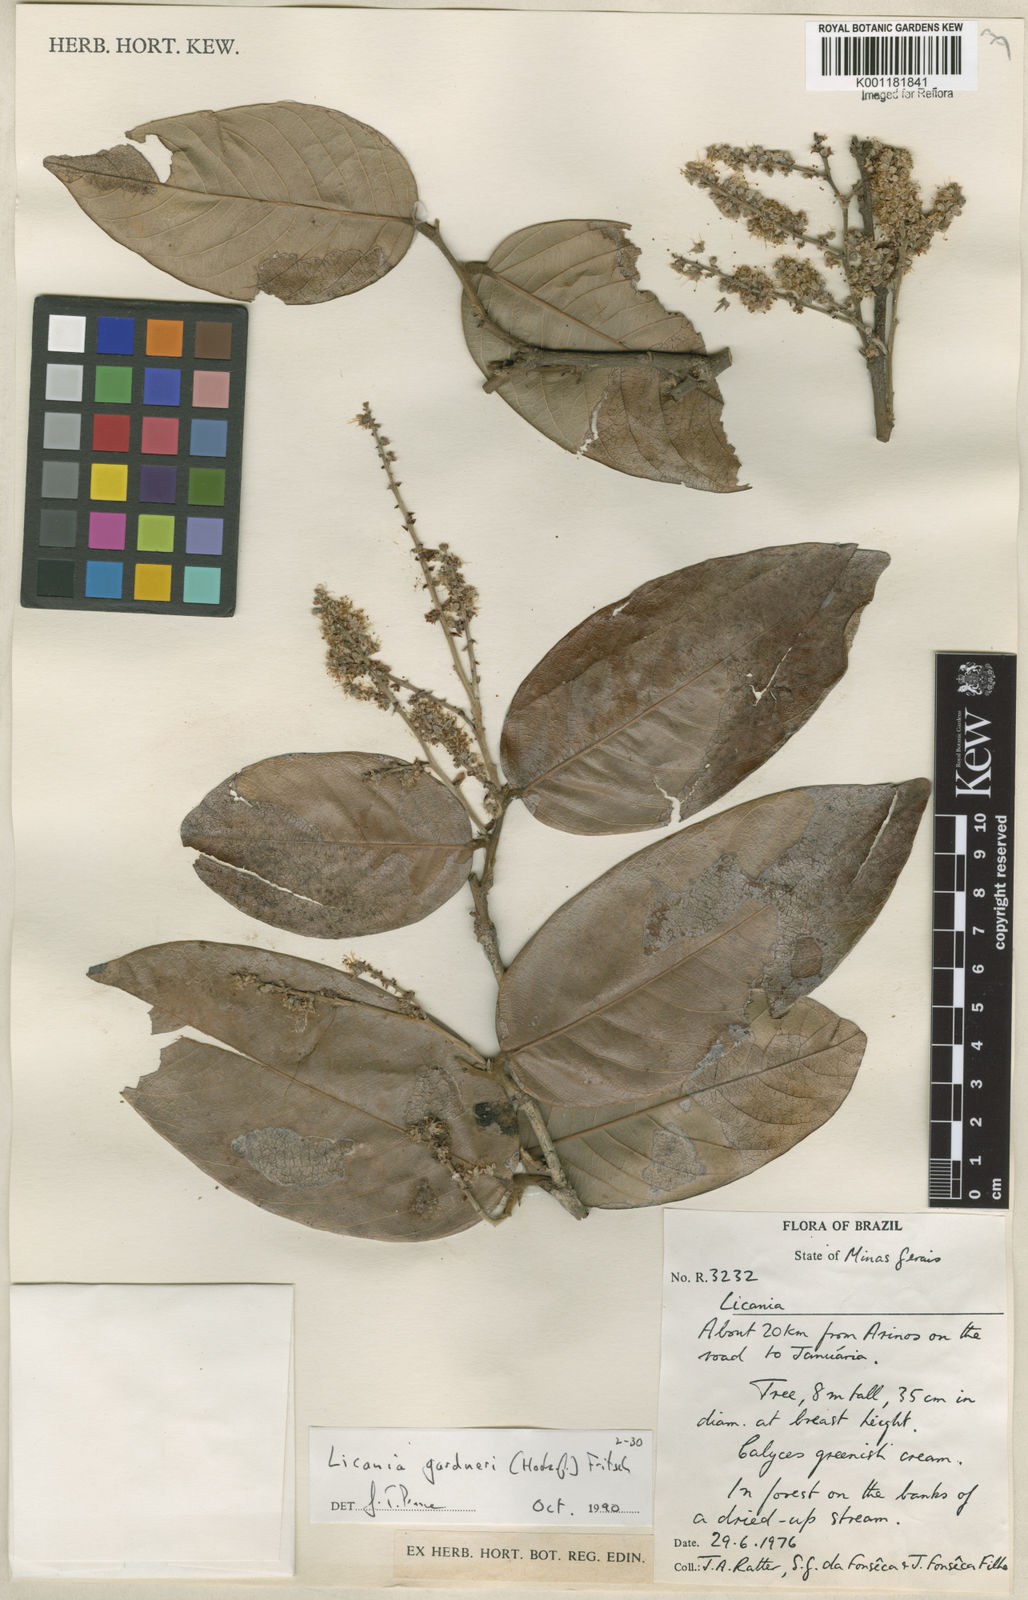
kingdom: Plantae
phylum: Tracheophyta
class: Magnoliopsida
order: Malpighiales
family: Chrysobalanaceae
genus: Leptobalanus
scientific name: Leptobalanus gardneri
